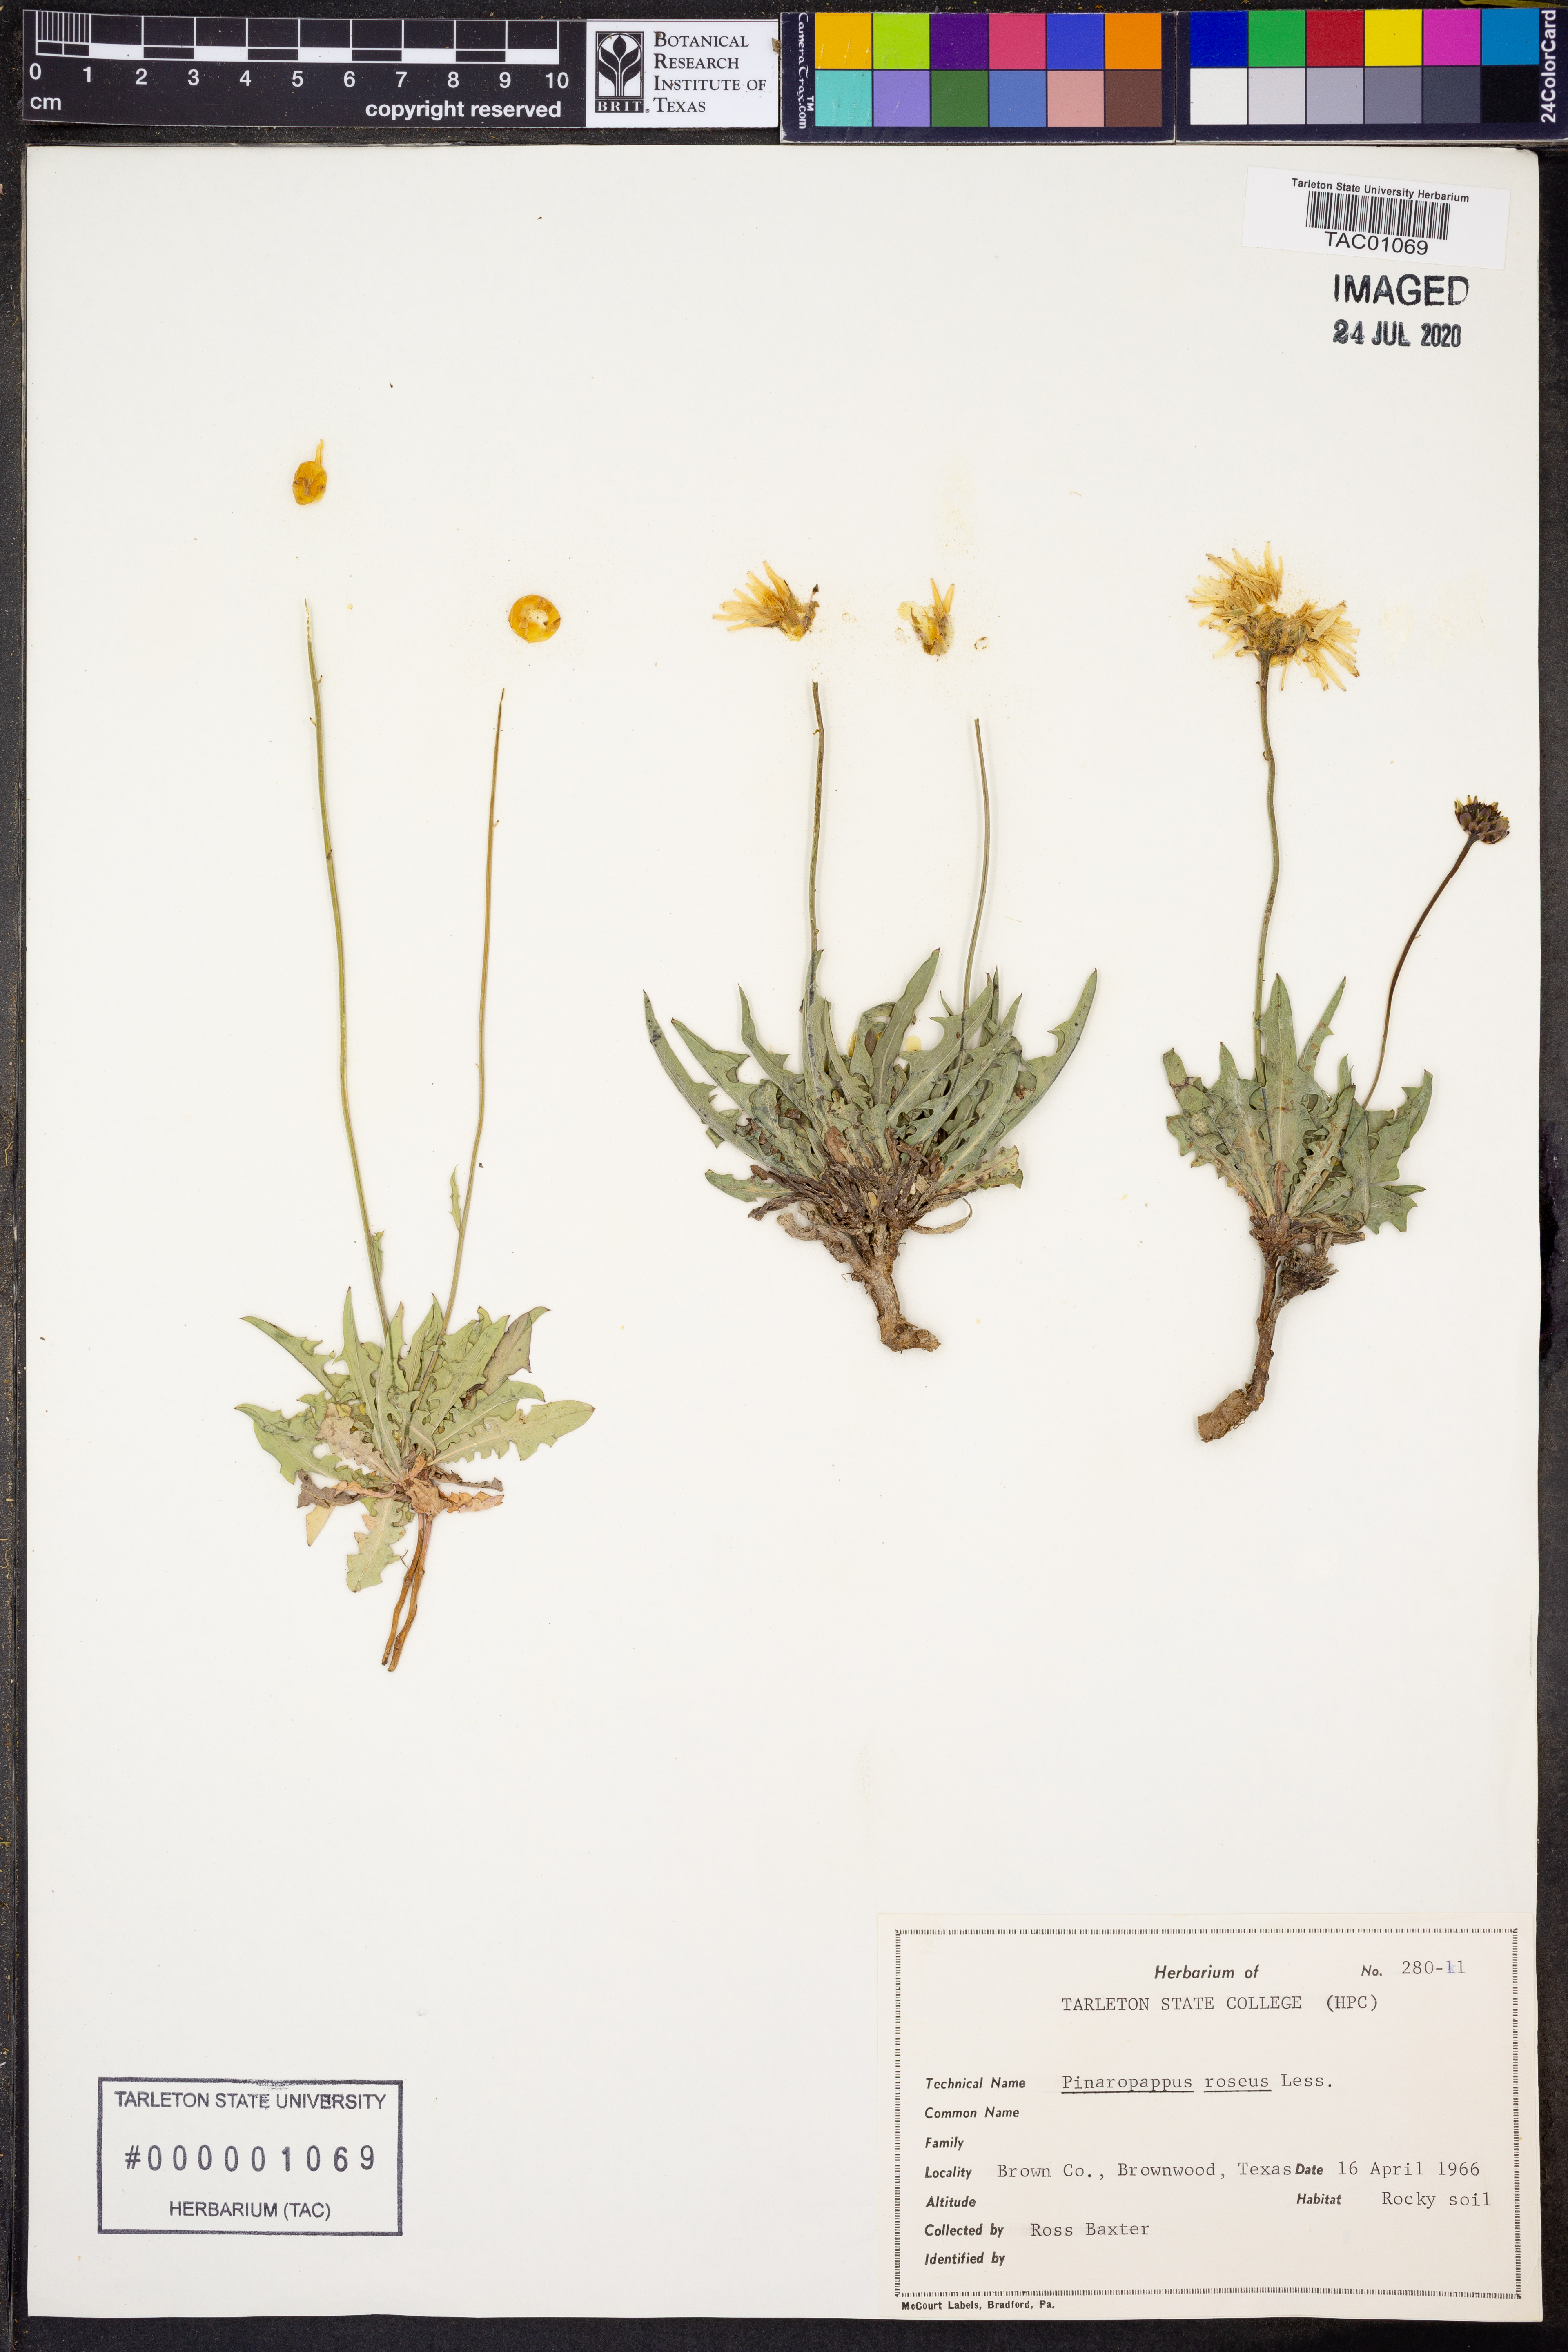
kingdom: Plantae
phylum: Tracheophyta
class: Magnoliopsida
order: Asterales
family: Asteraceae
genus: Pinaropappus
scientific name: Pinaropappus roseus
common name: Rock-lettuce
